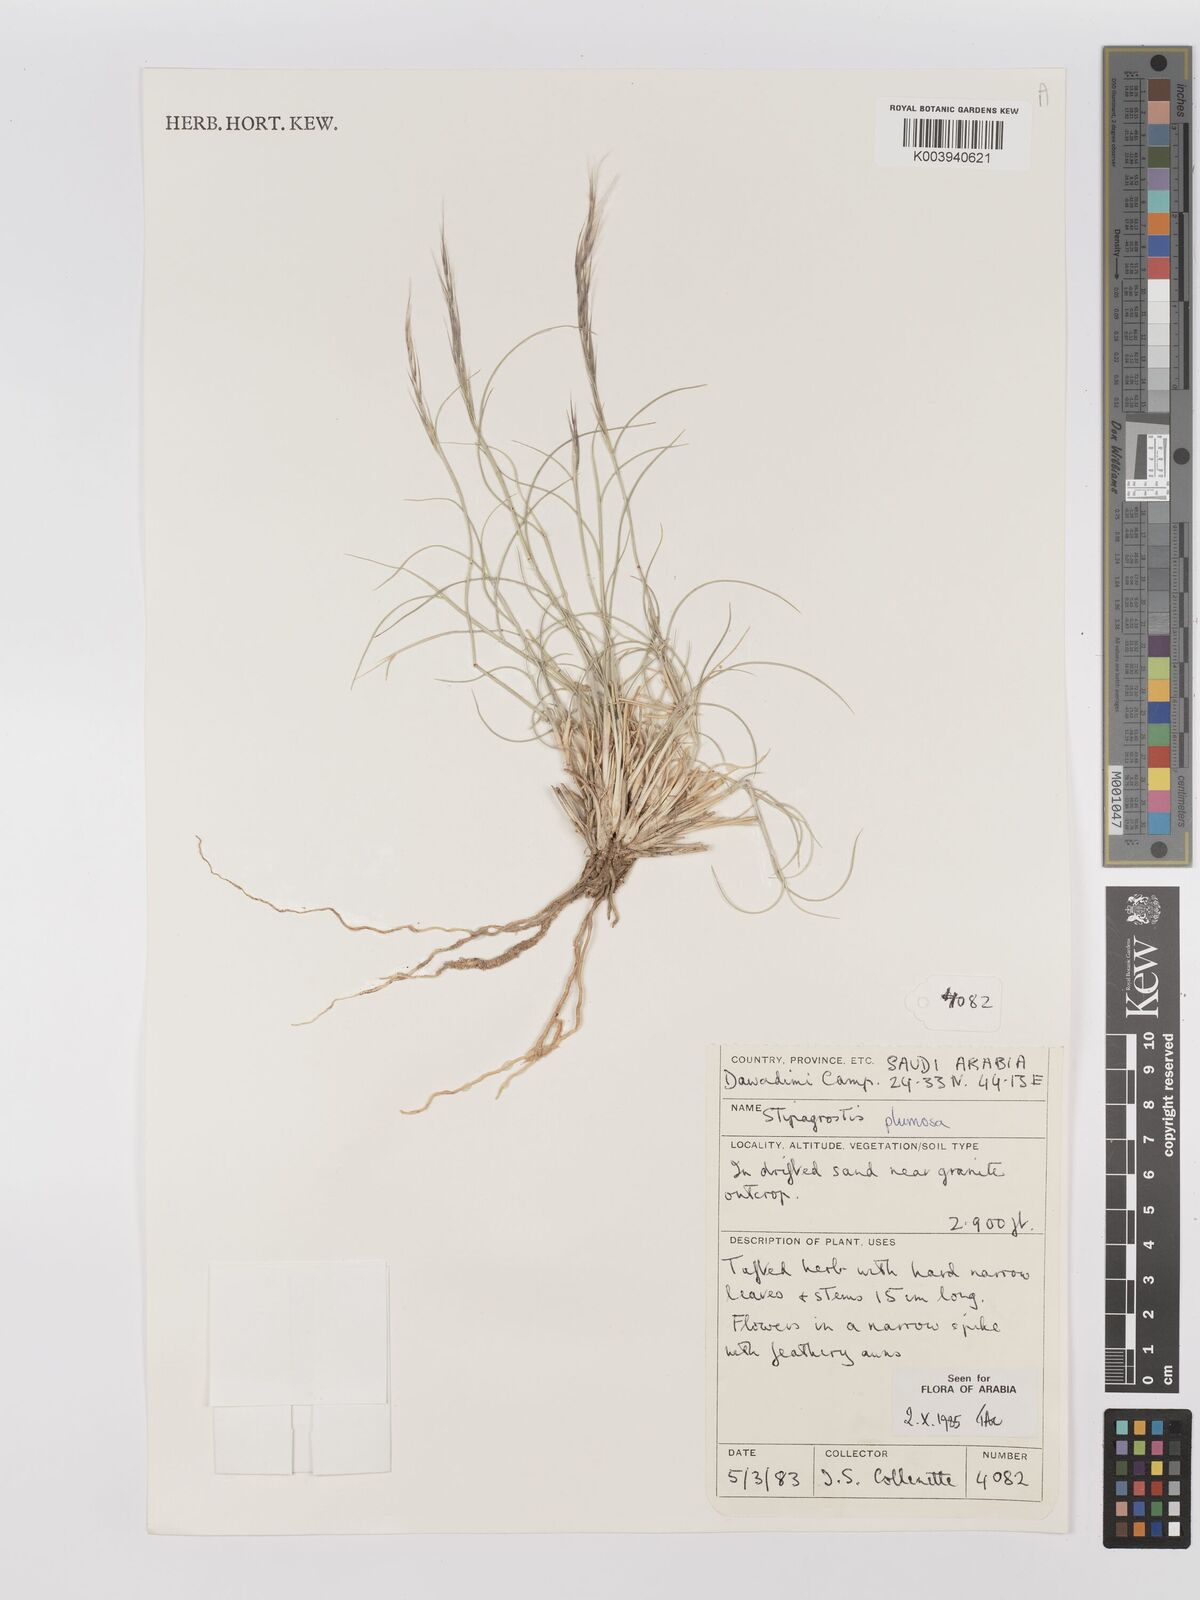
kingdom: Plantae
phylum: Tracheophyta
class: Liliopsida
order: Poales
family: Poaceae
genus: Stipagrostis
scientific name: Stipagrostis plumosa
